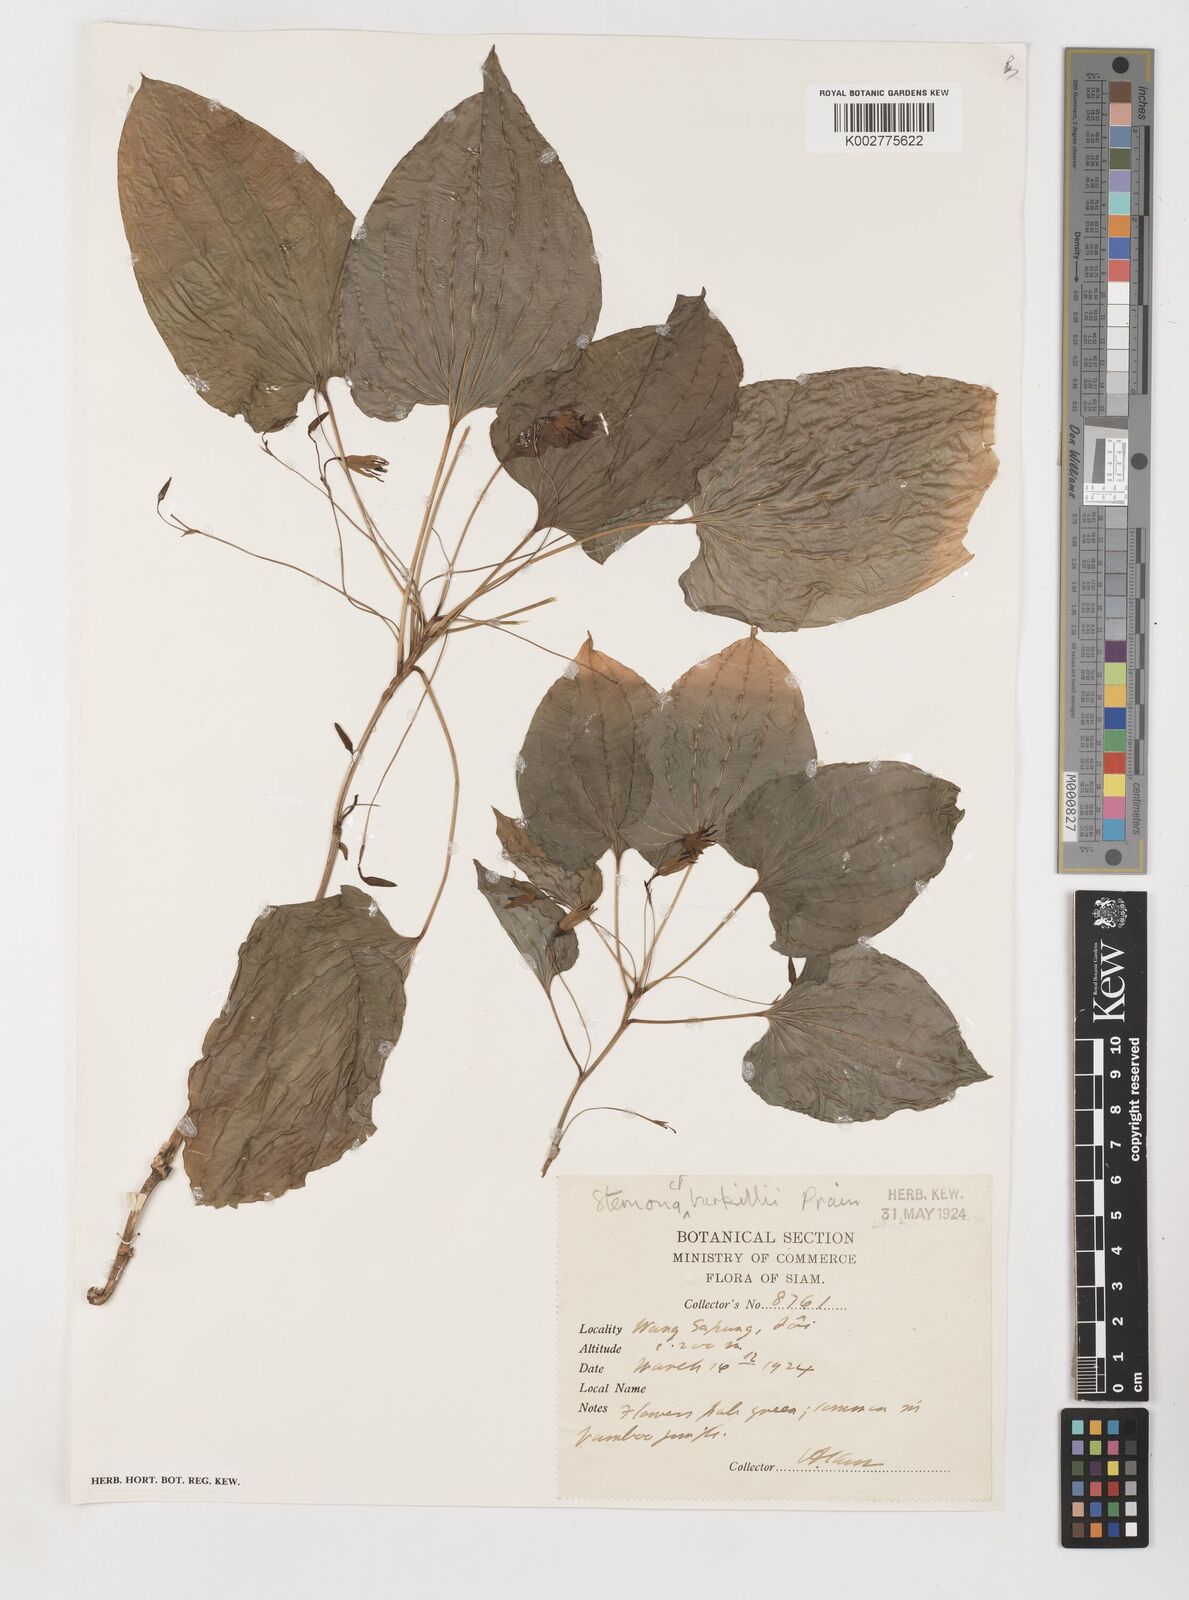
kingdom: Plantae
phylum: Tracheophyta
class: Liliopsida
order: Pandanales
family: Stemonaceae
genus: Stemona
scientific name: Stemona burkillii
